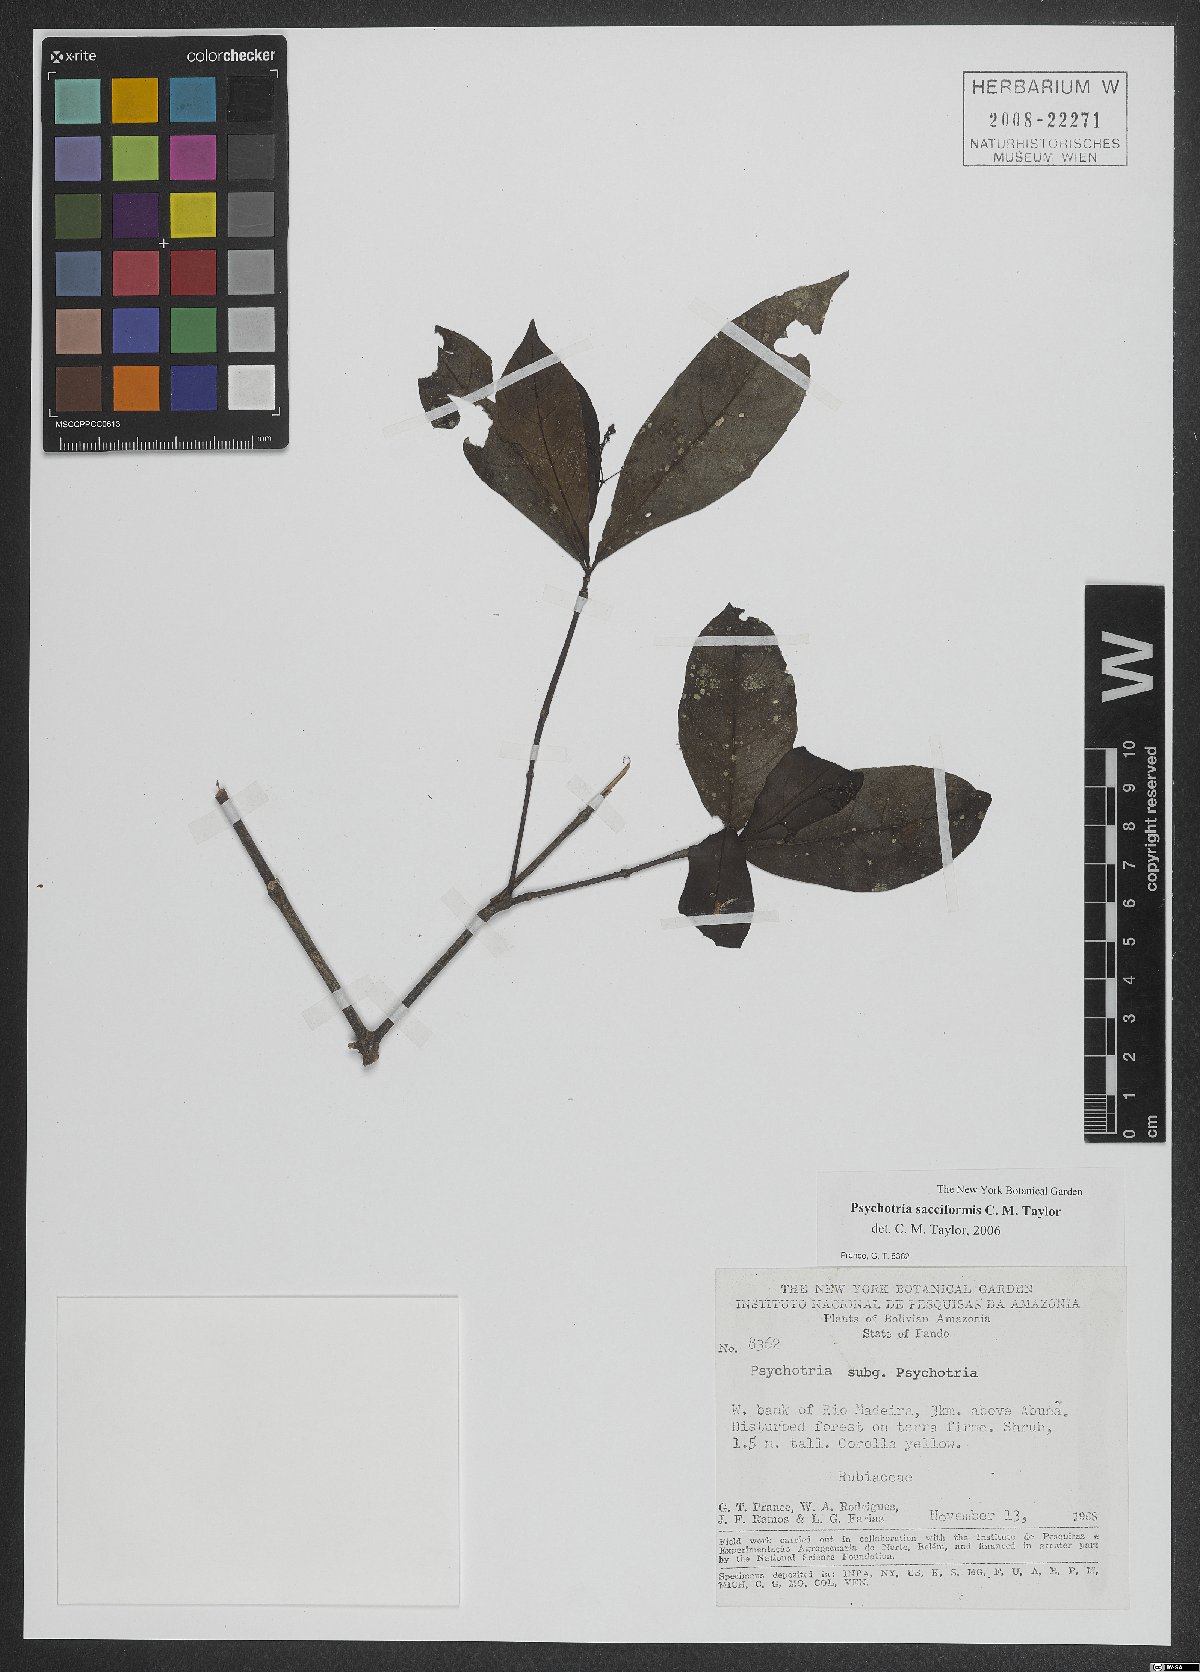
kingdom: Plantae
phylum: Tracheophyta
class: Magnoliopsida
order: Gentianales
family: Rubiaceae
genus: Psychotria
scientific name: Psychotria sacciformis
